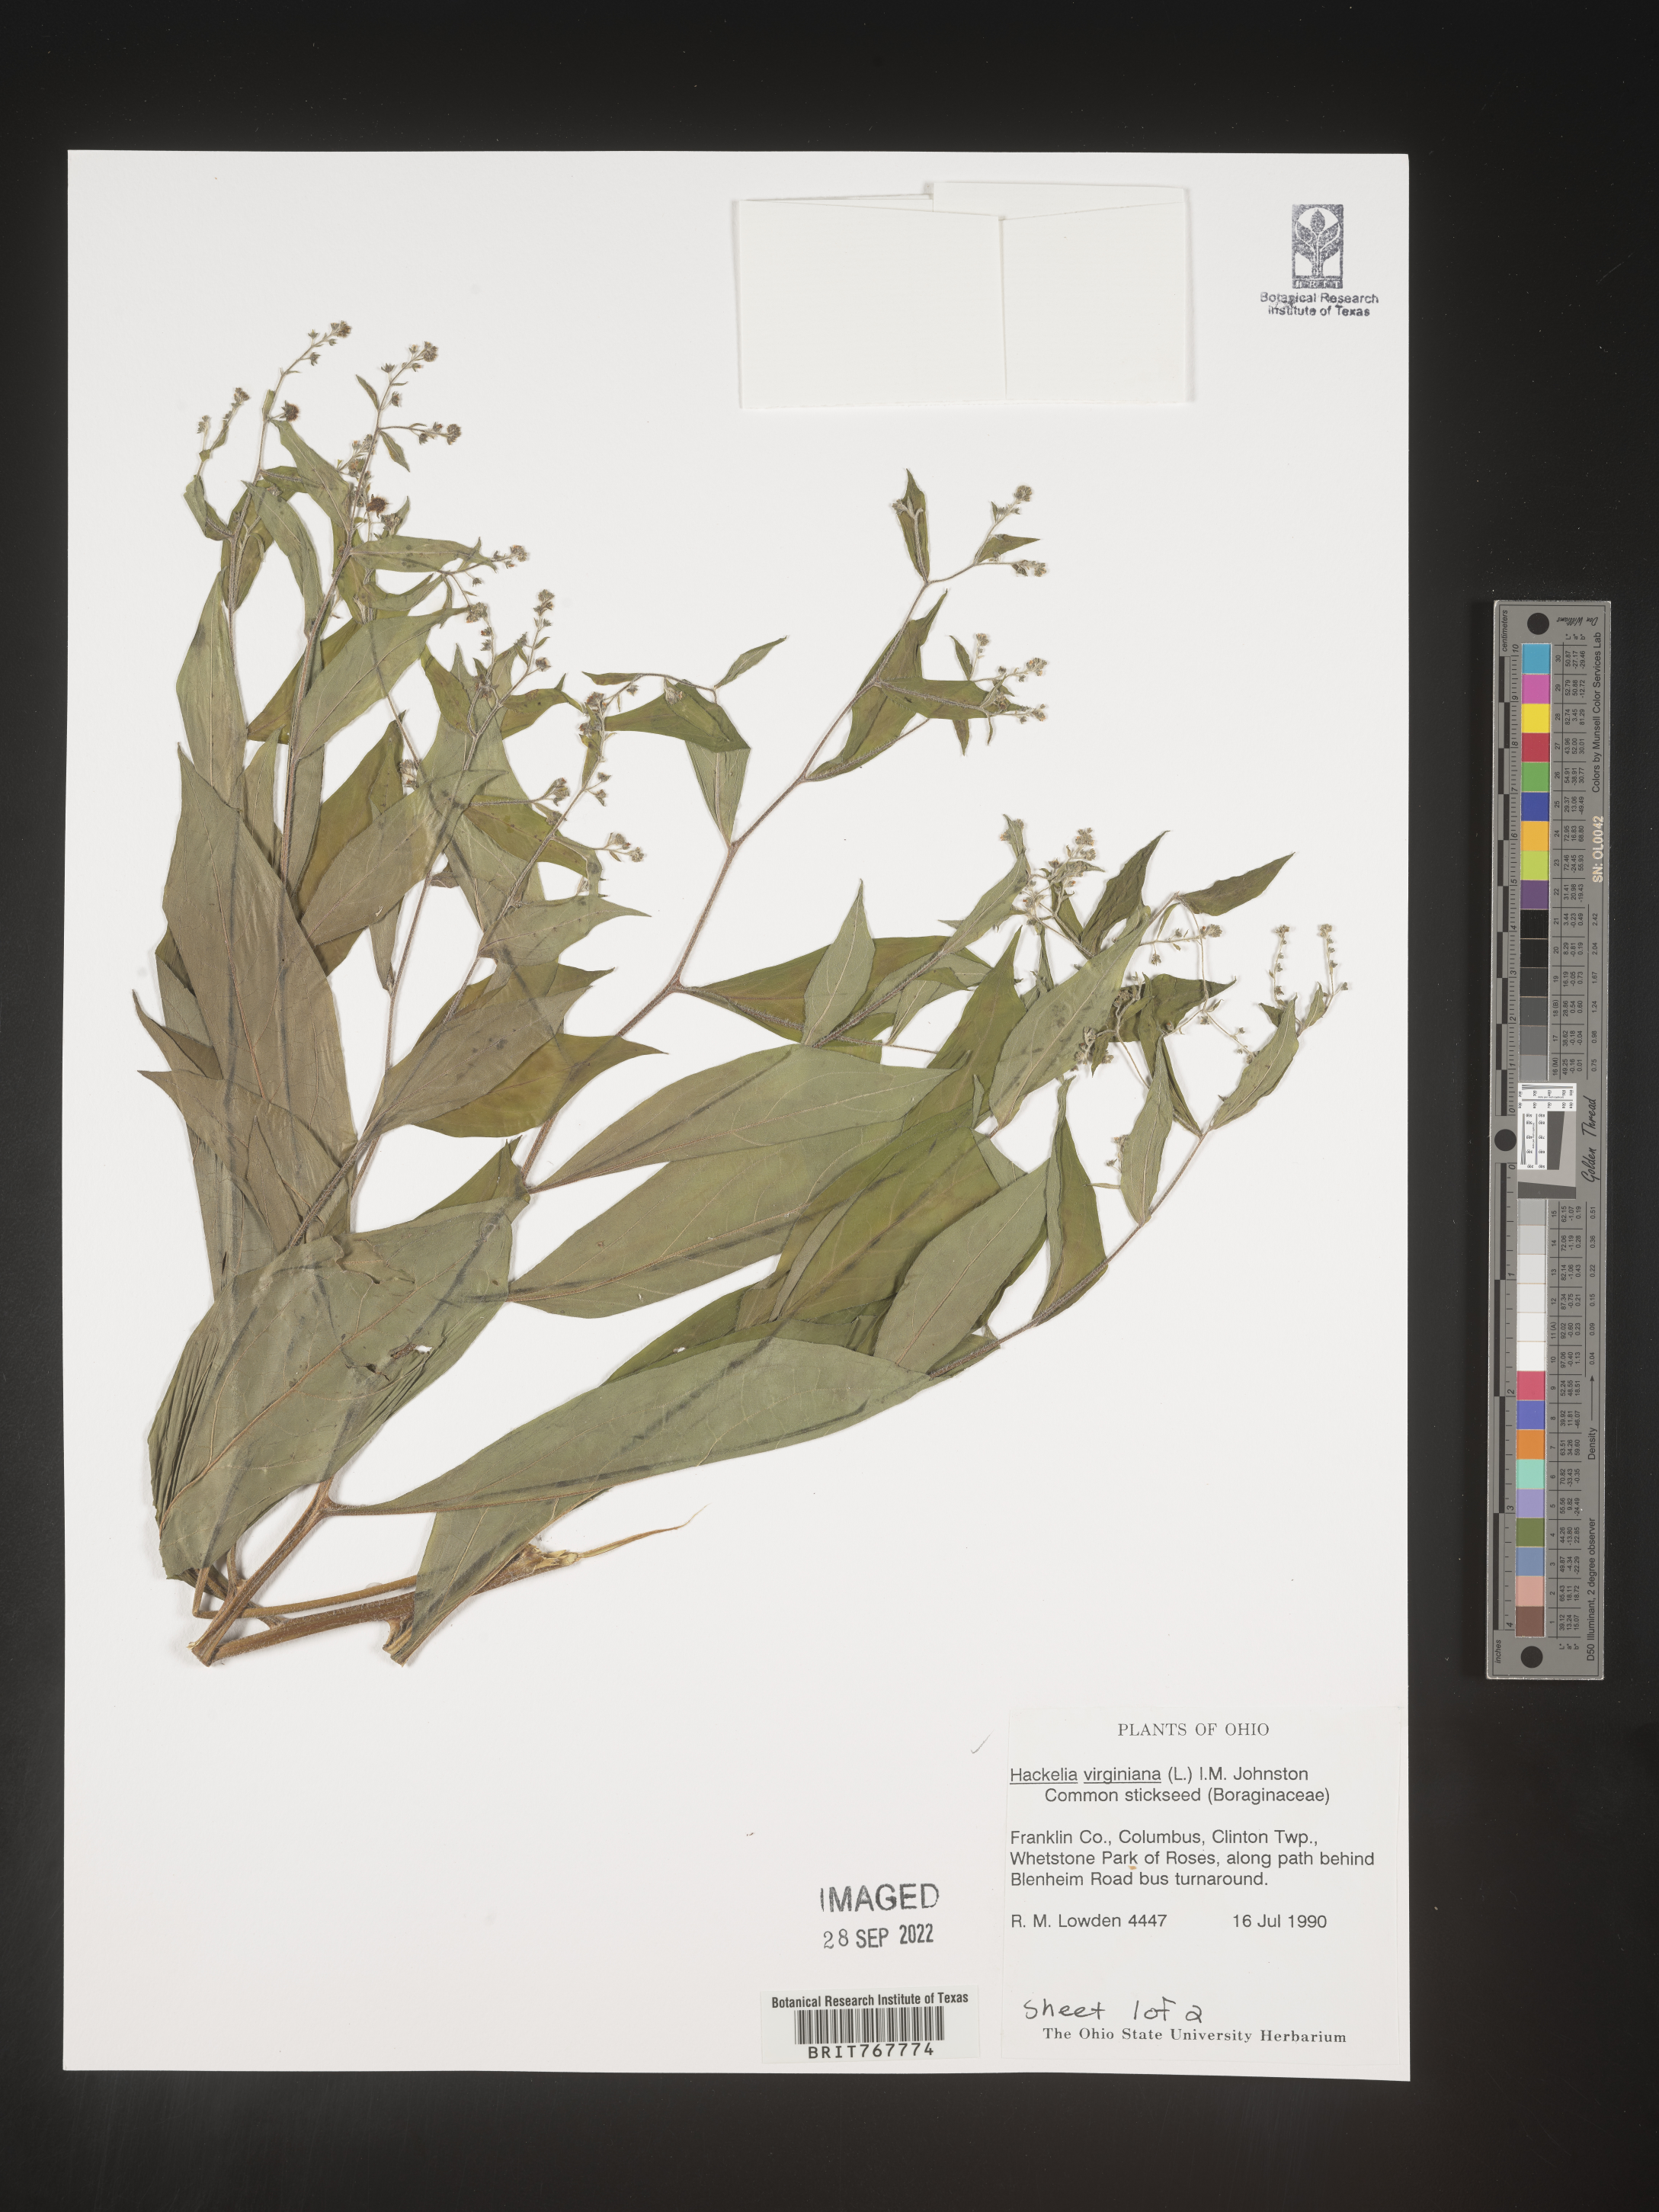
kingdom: Plantae
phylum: Tracheophyta
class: Magnoliopsida
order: Boraginales
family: Boraginaceae
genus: Hackelia
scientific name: Hackelia virginiana
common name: Beggar's-lice
